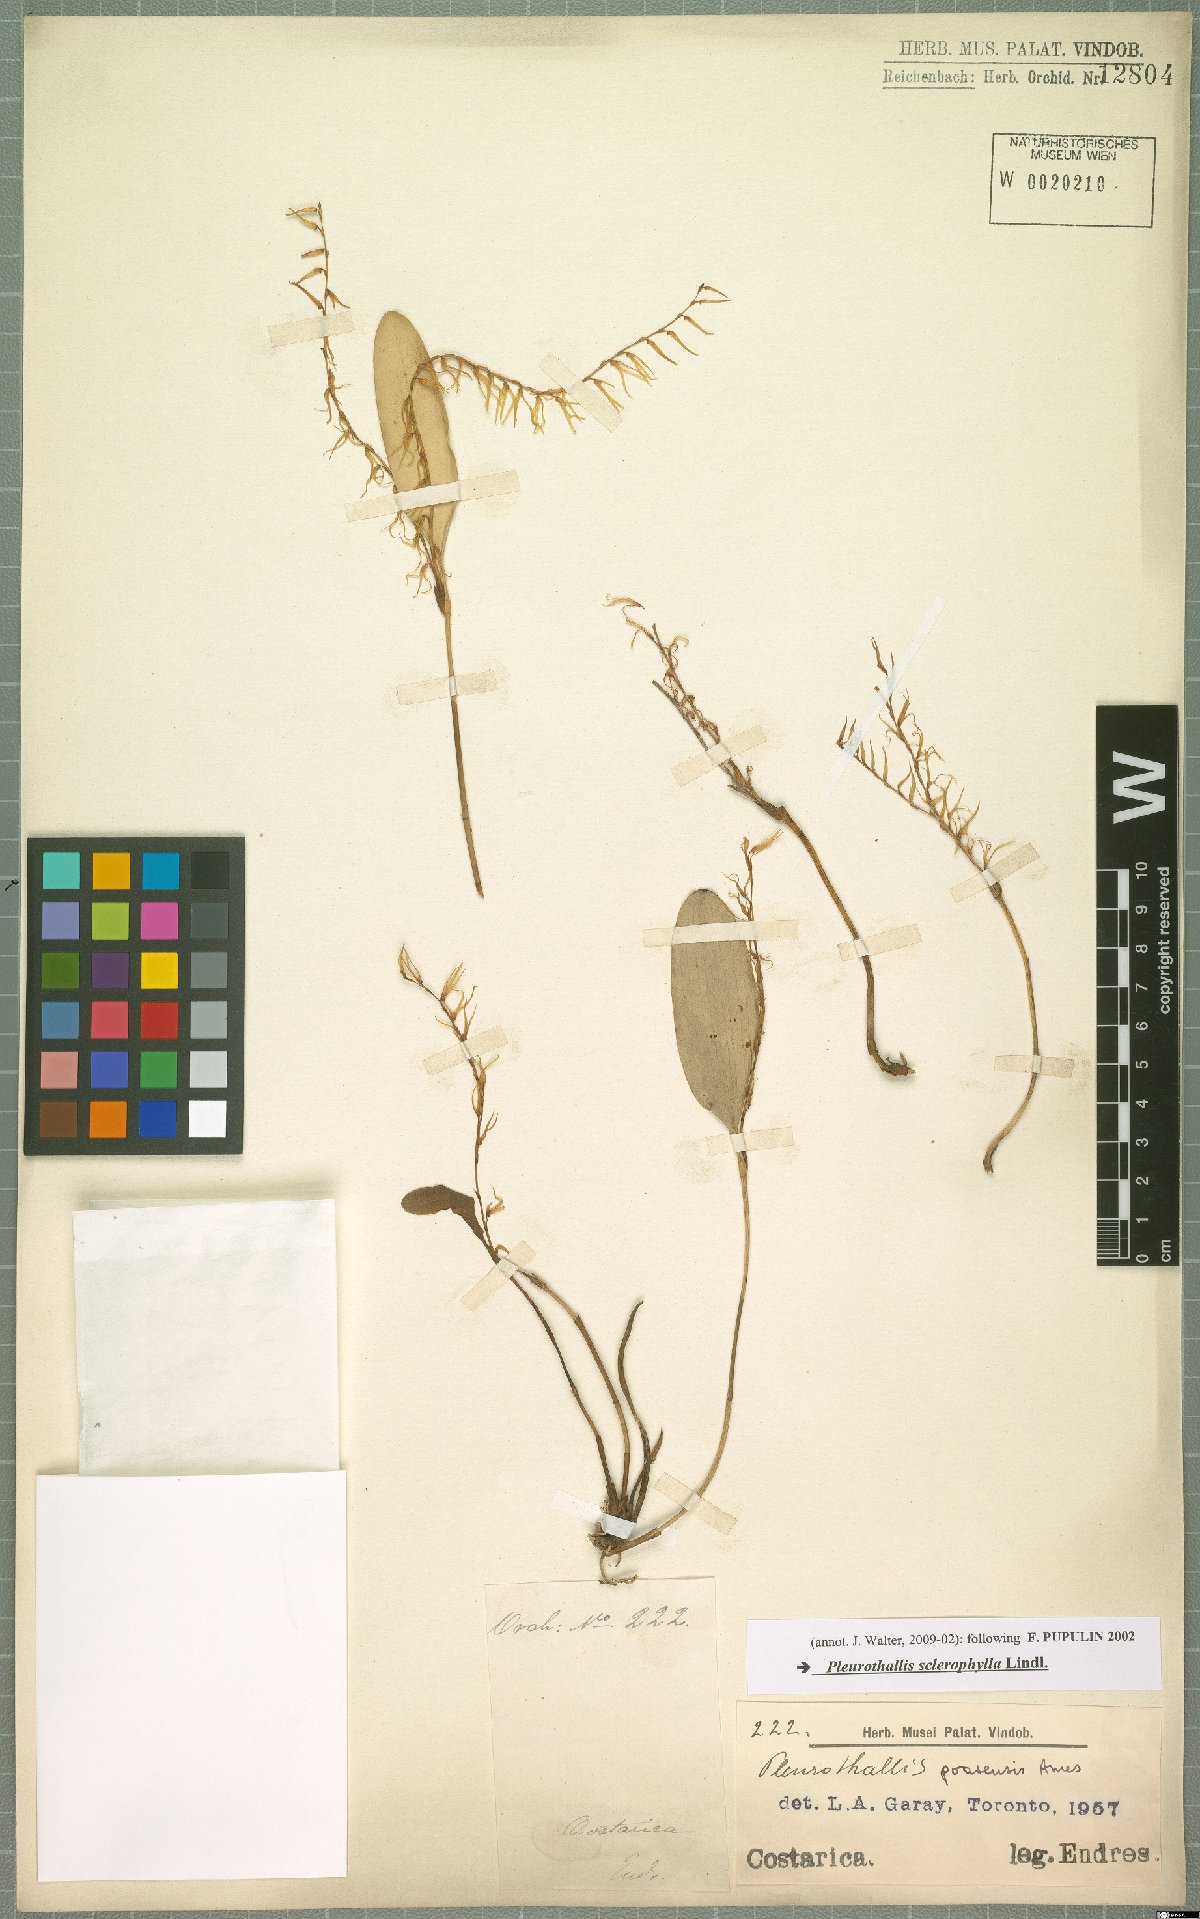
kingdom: Plantae
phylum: Tracheophyta
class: Liliopsida
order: Asparagales
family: Orchidaceae
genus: Stelis
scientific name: Stelis sclerophylla
